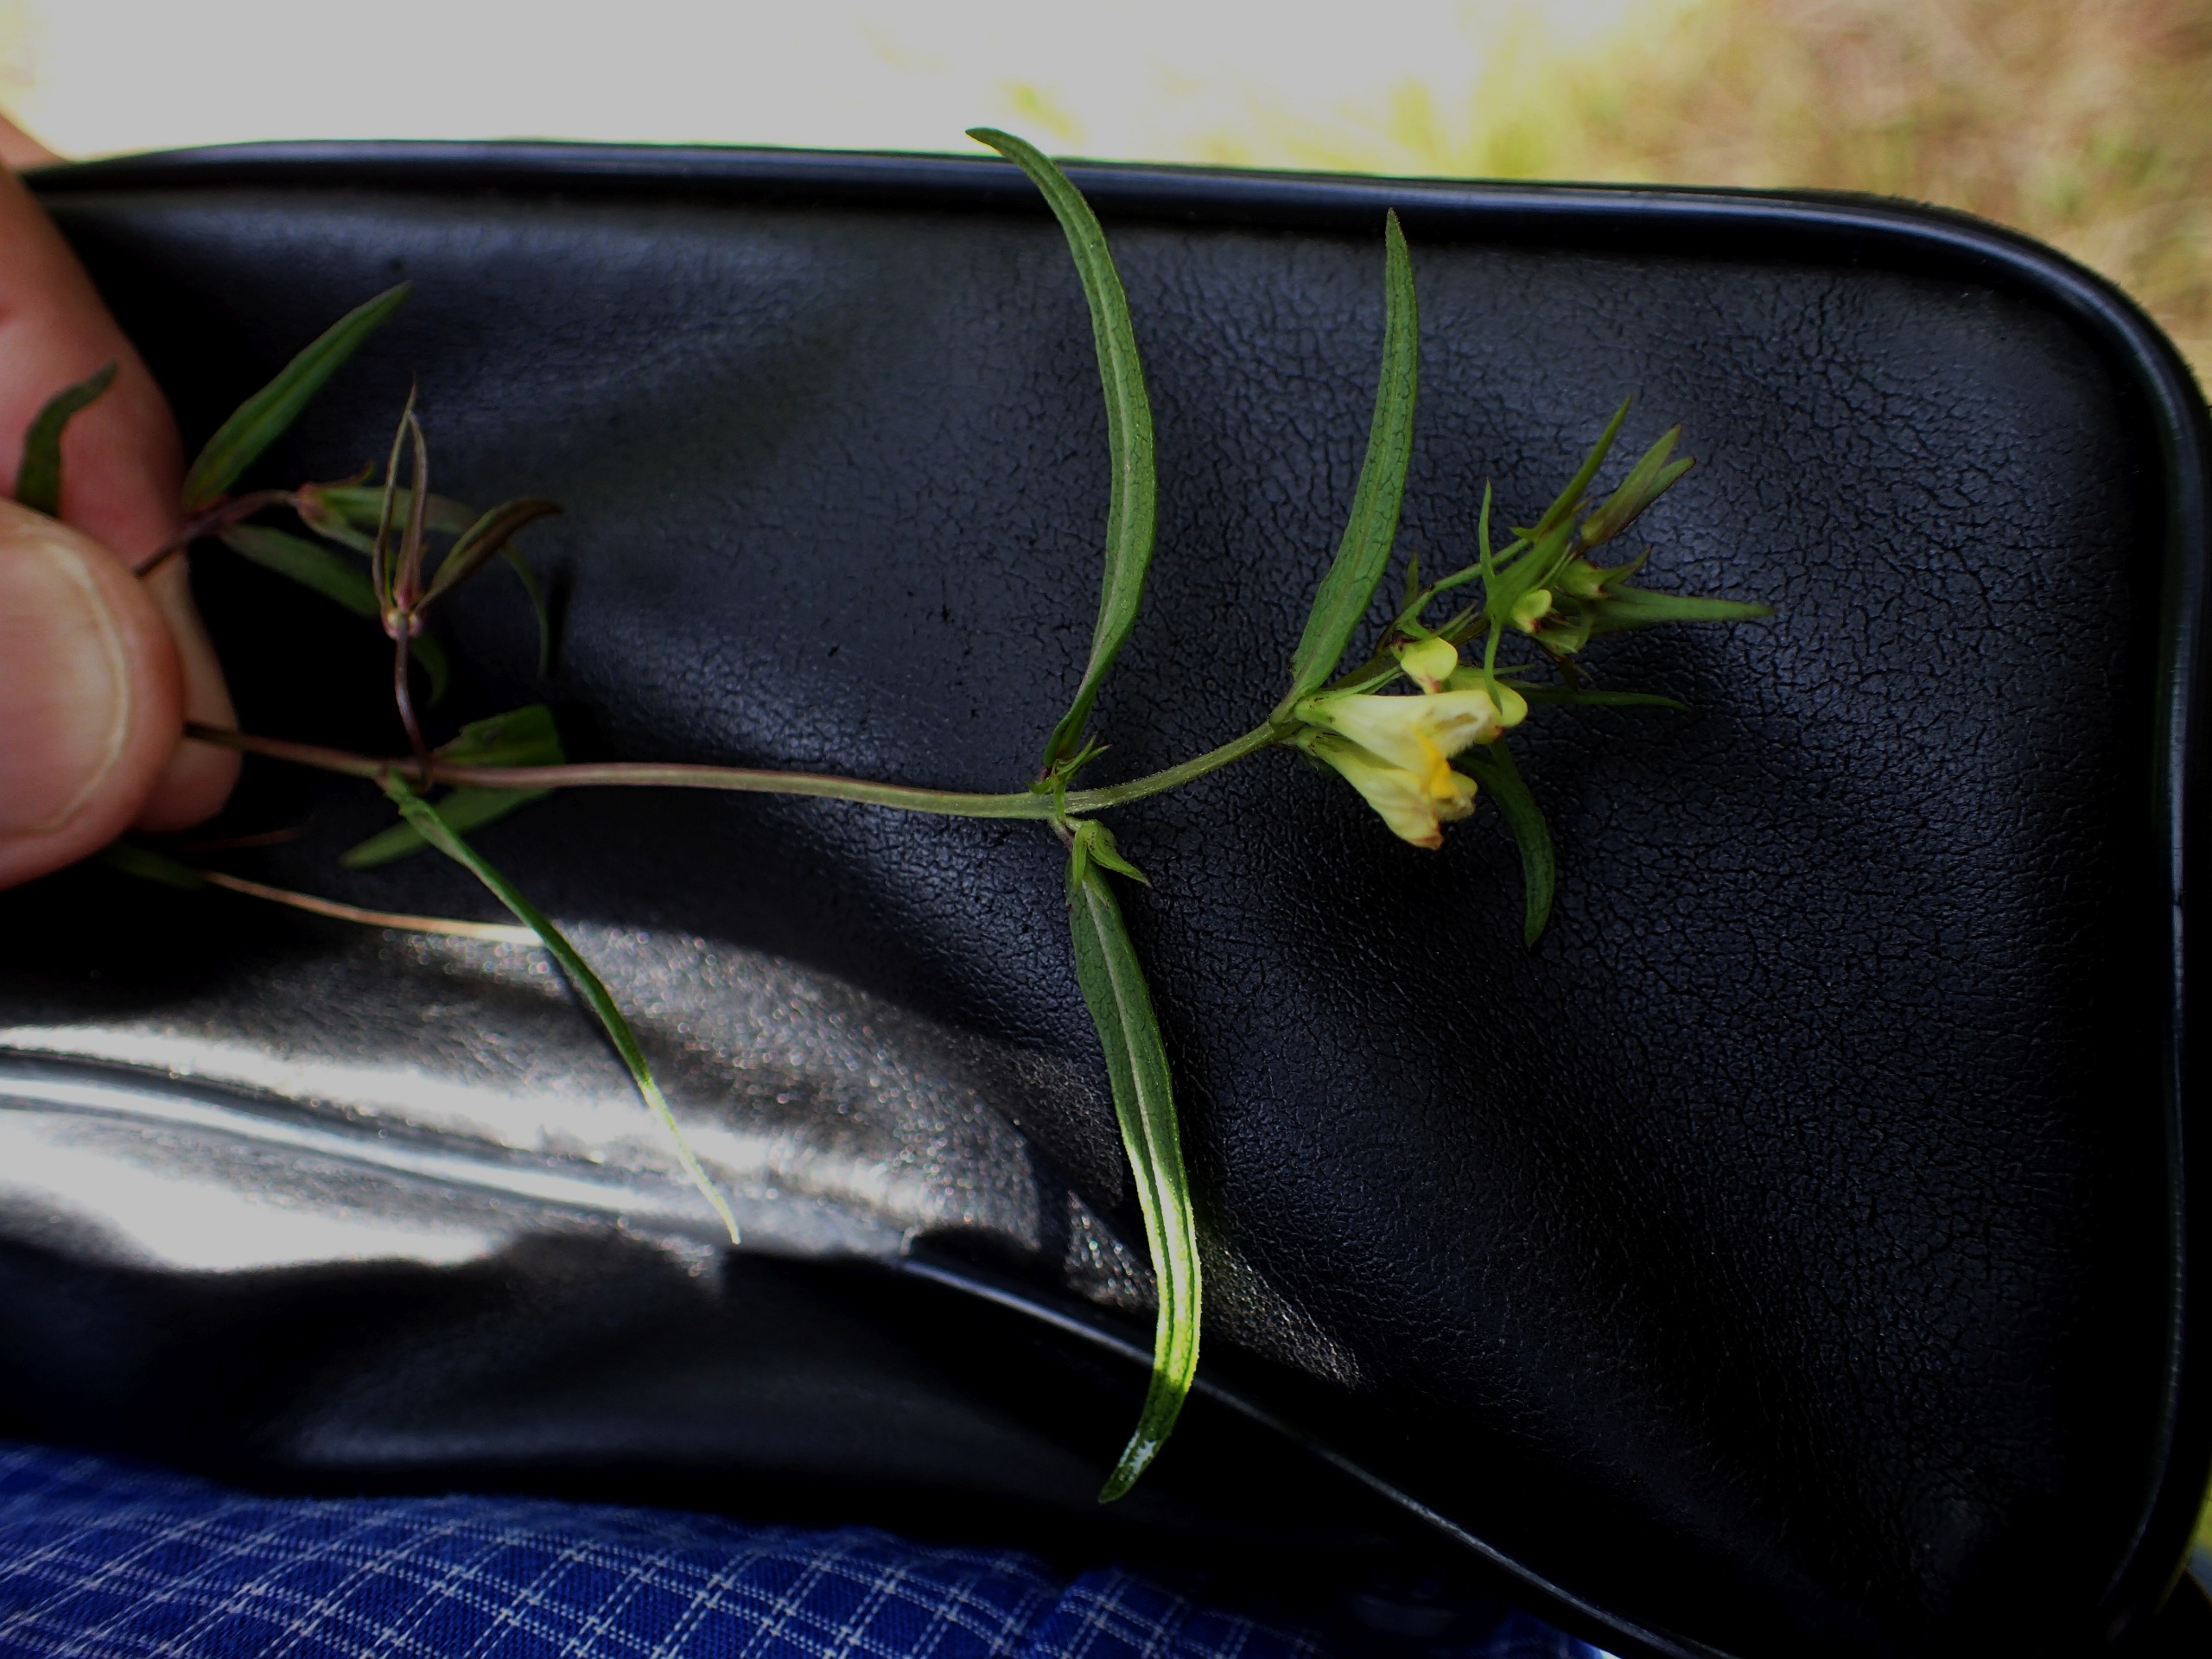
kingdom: Plantae
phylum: Tracheophyta
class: Magnoliopsida
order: Lamiales
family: Orobanchaceae
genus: Melampyrum
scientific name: Melampyrum pratense
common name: Almindelig kohvede
